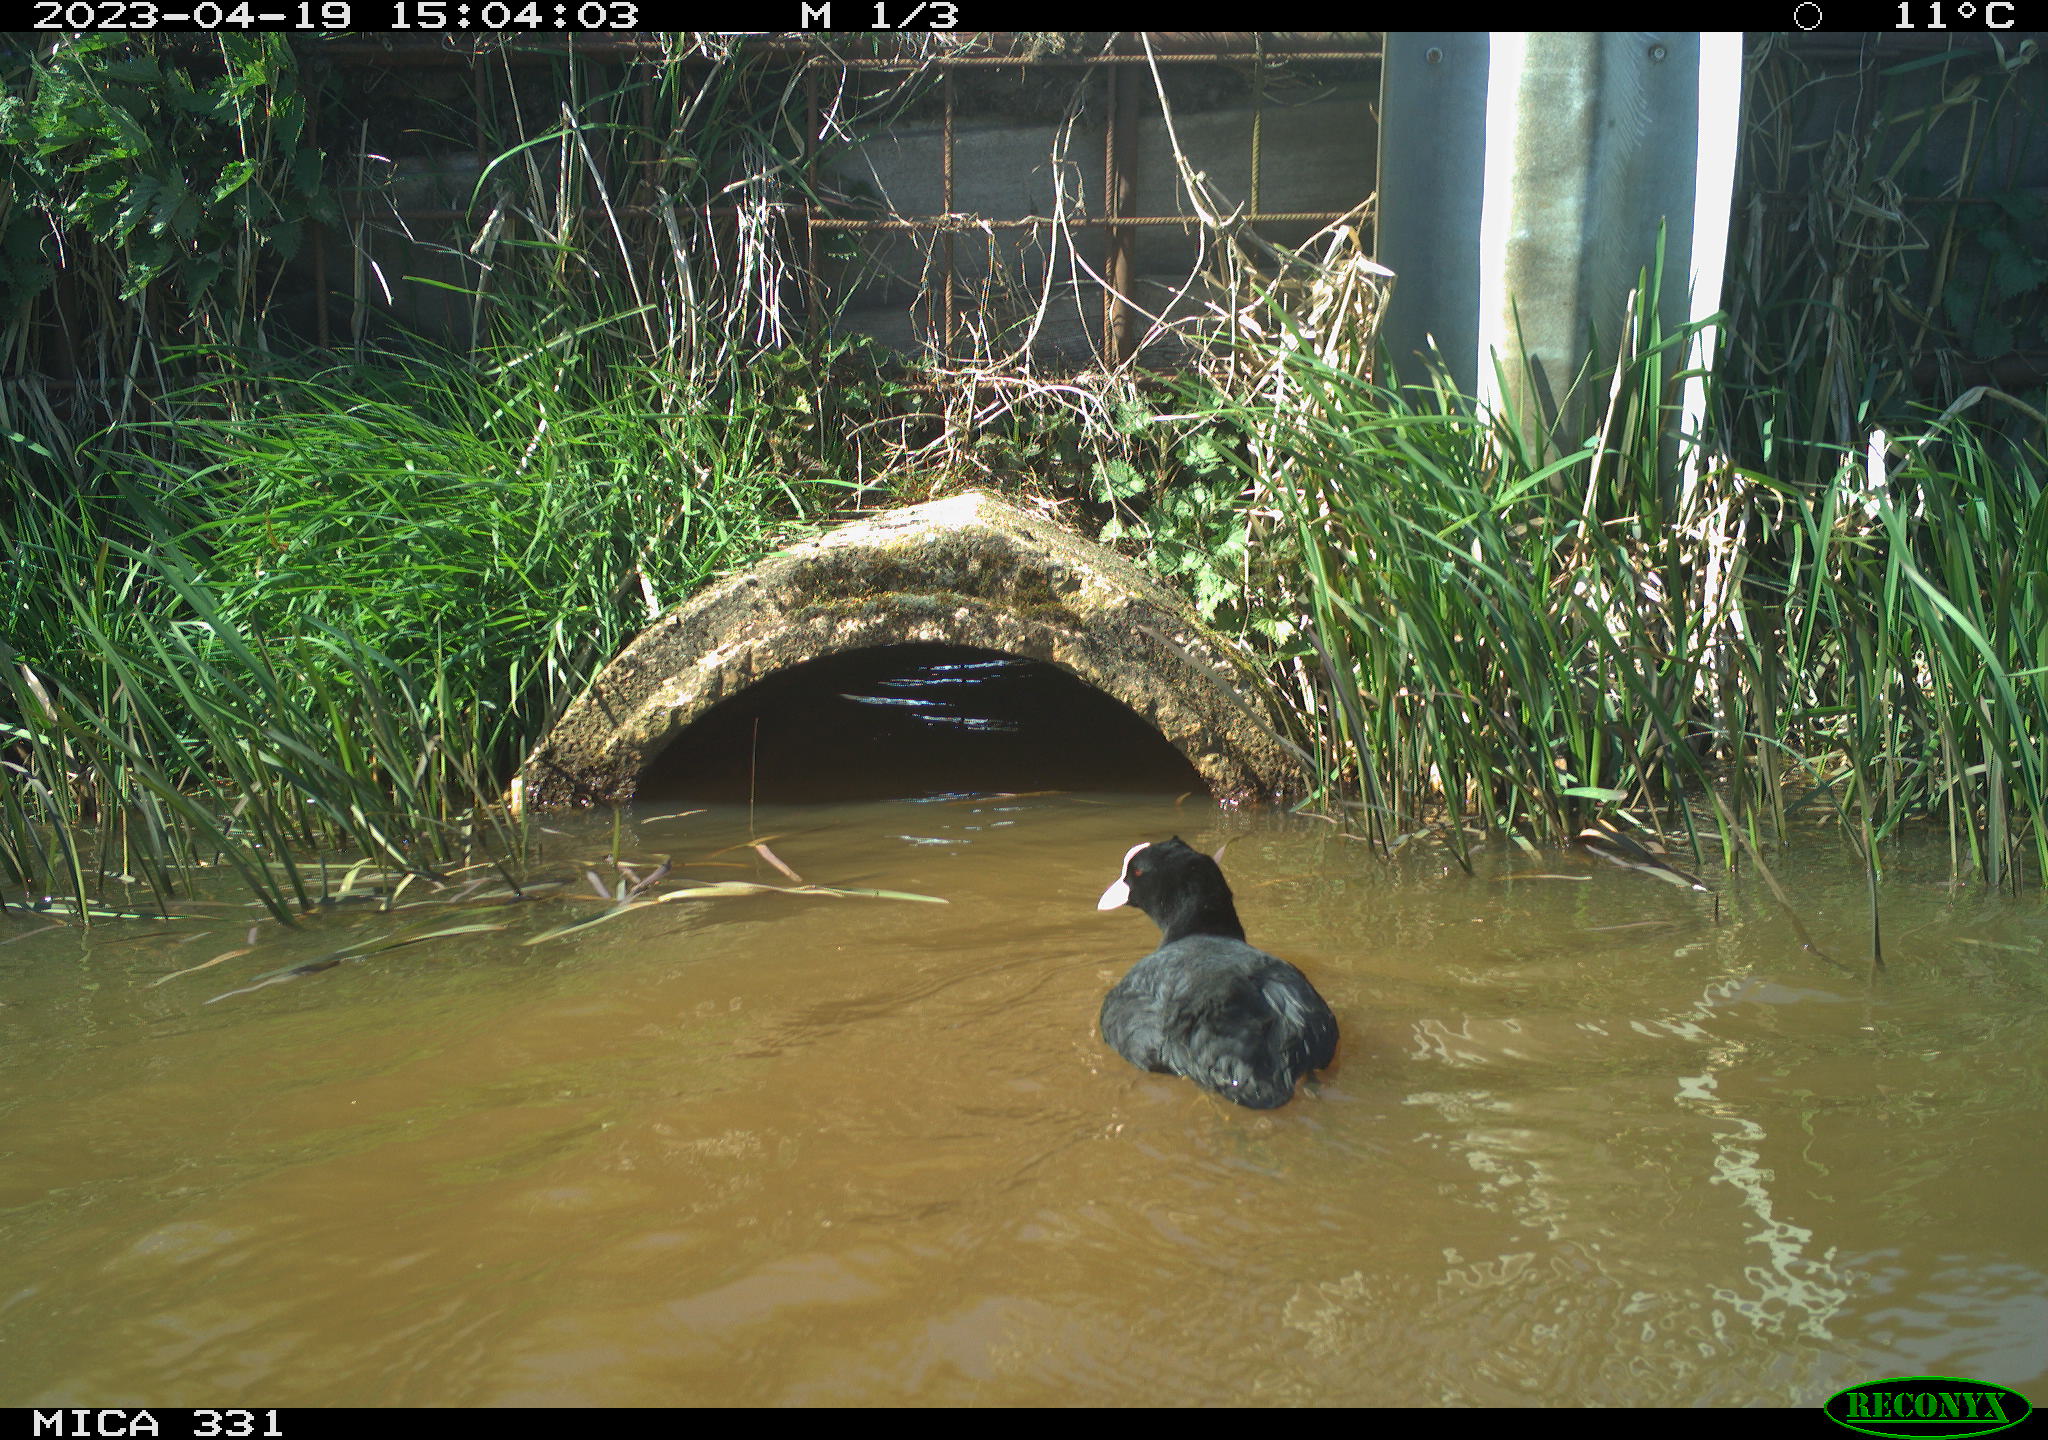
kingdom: Animalia
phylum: Chordata
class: Aves
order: Gruiformes
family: Rallidae
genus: Fulica
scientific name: Fulica atra
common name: Eurasian coot
